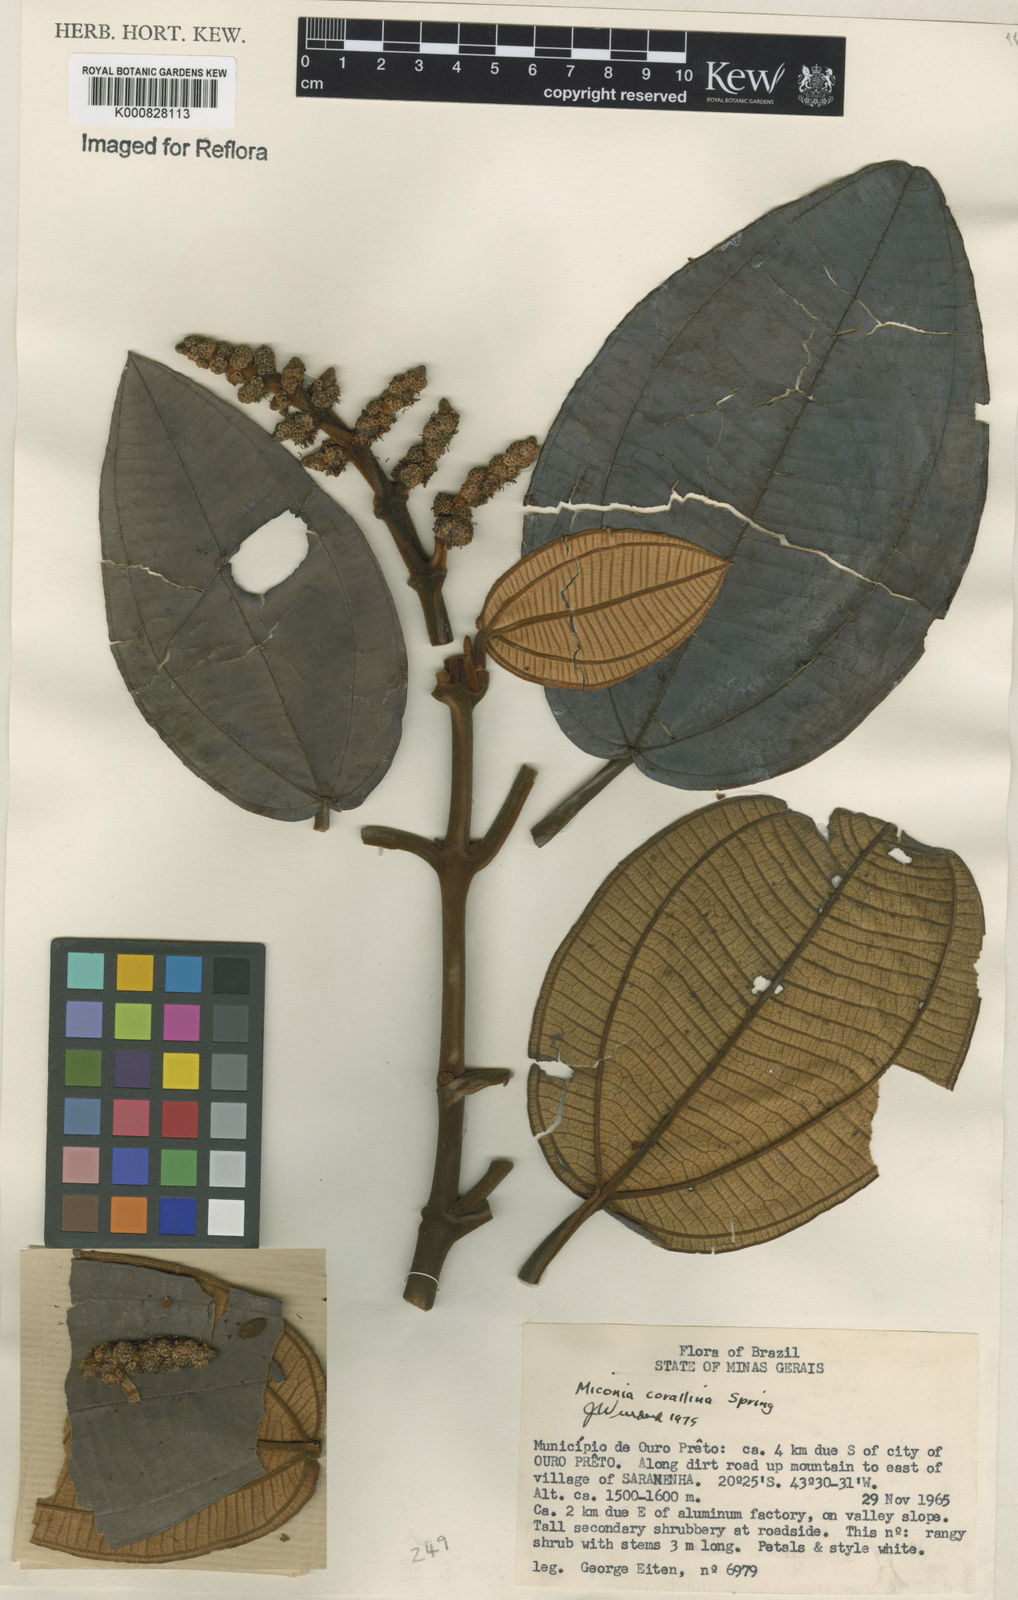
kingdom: Plantae
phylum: Tracheophyta
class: Magnoliopsida
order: Myrtales
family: Melastomataceae
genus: Miconia
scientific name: Miconia
